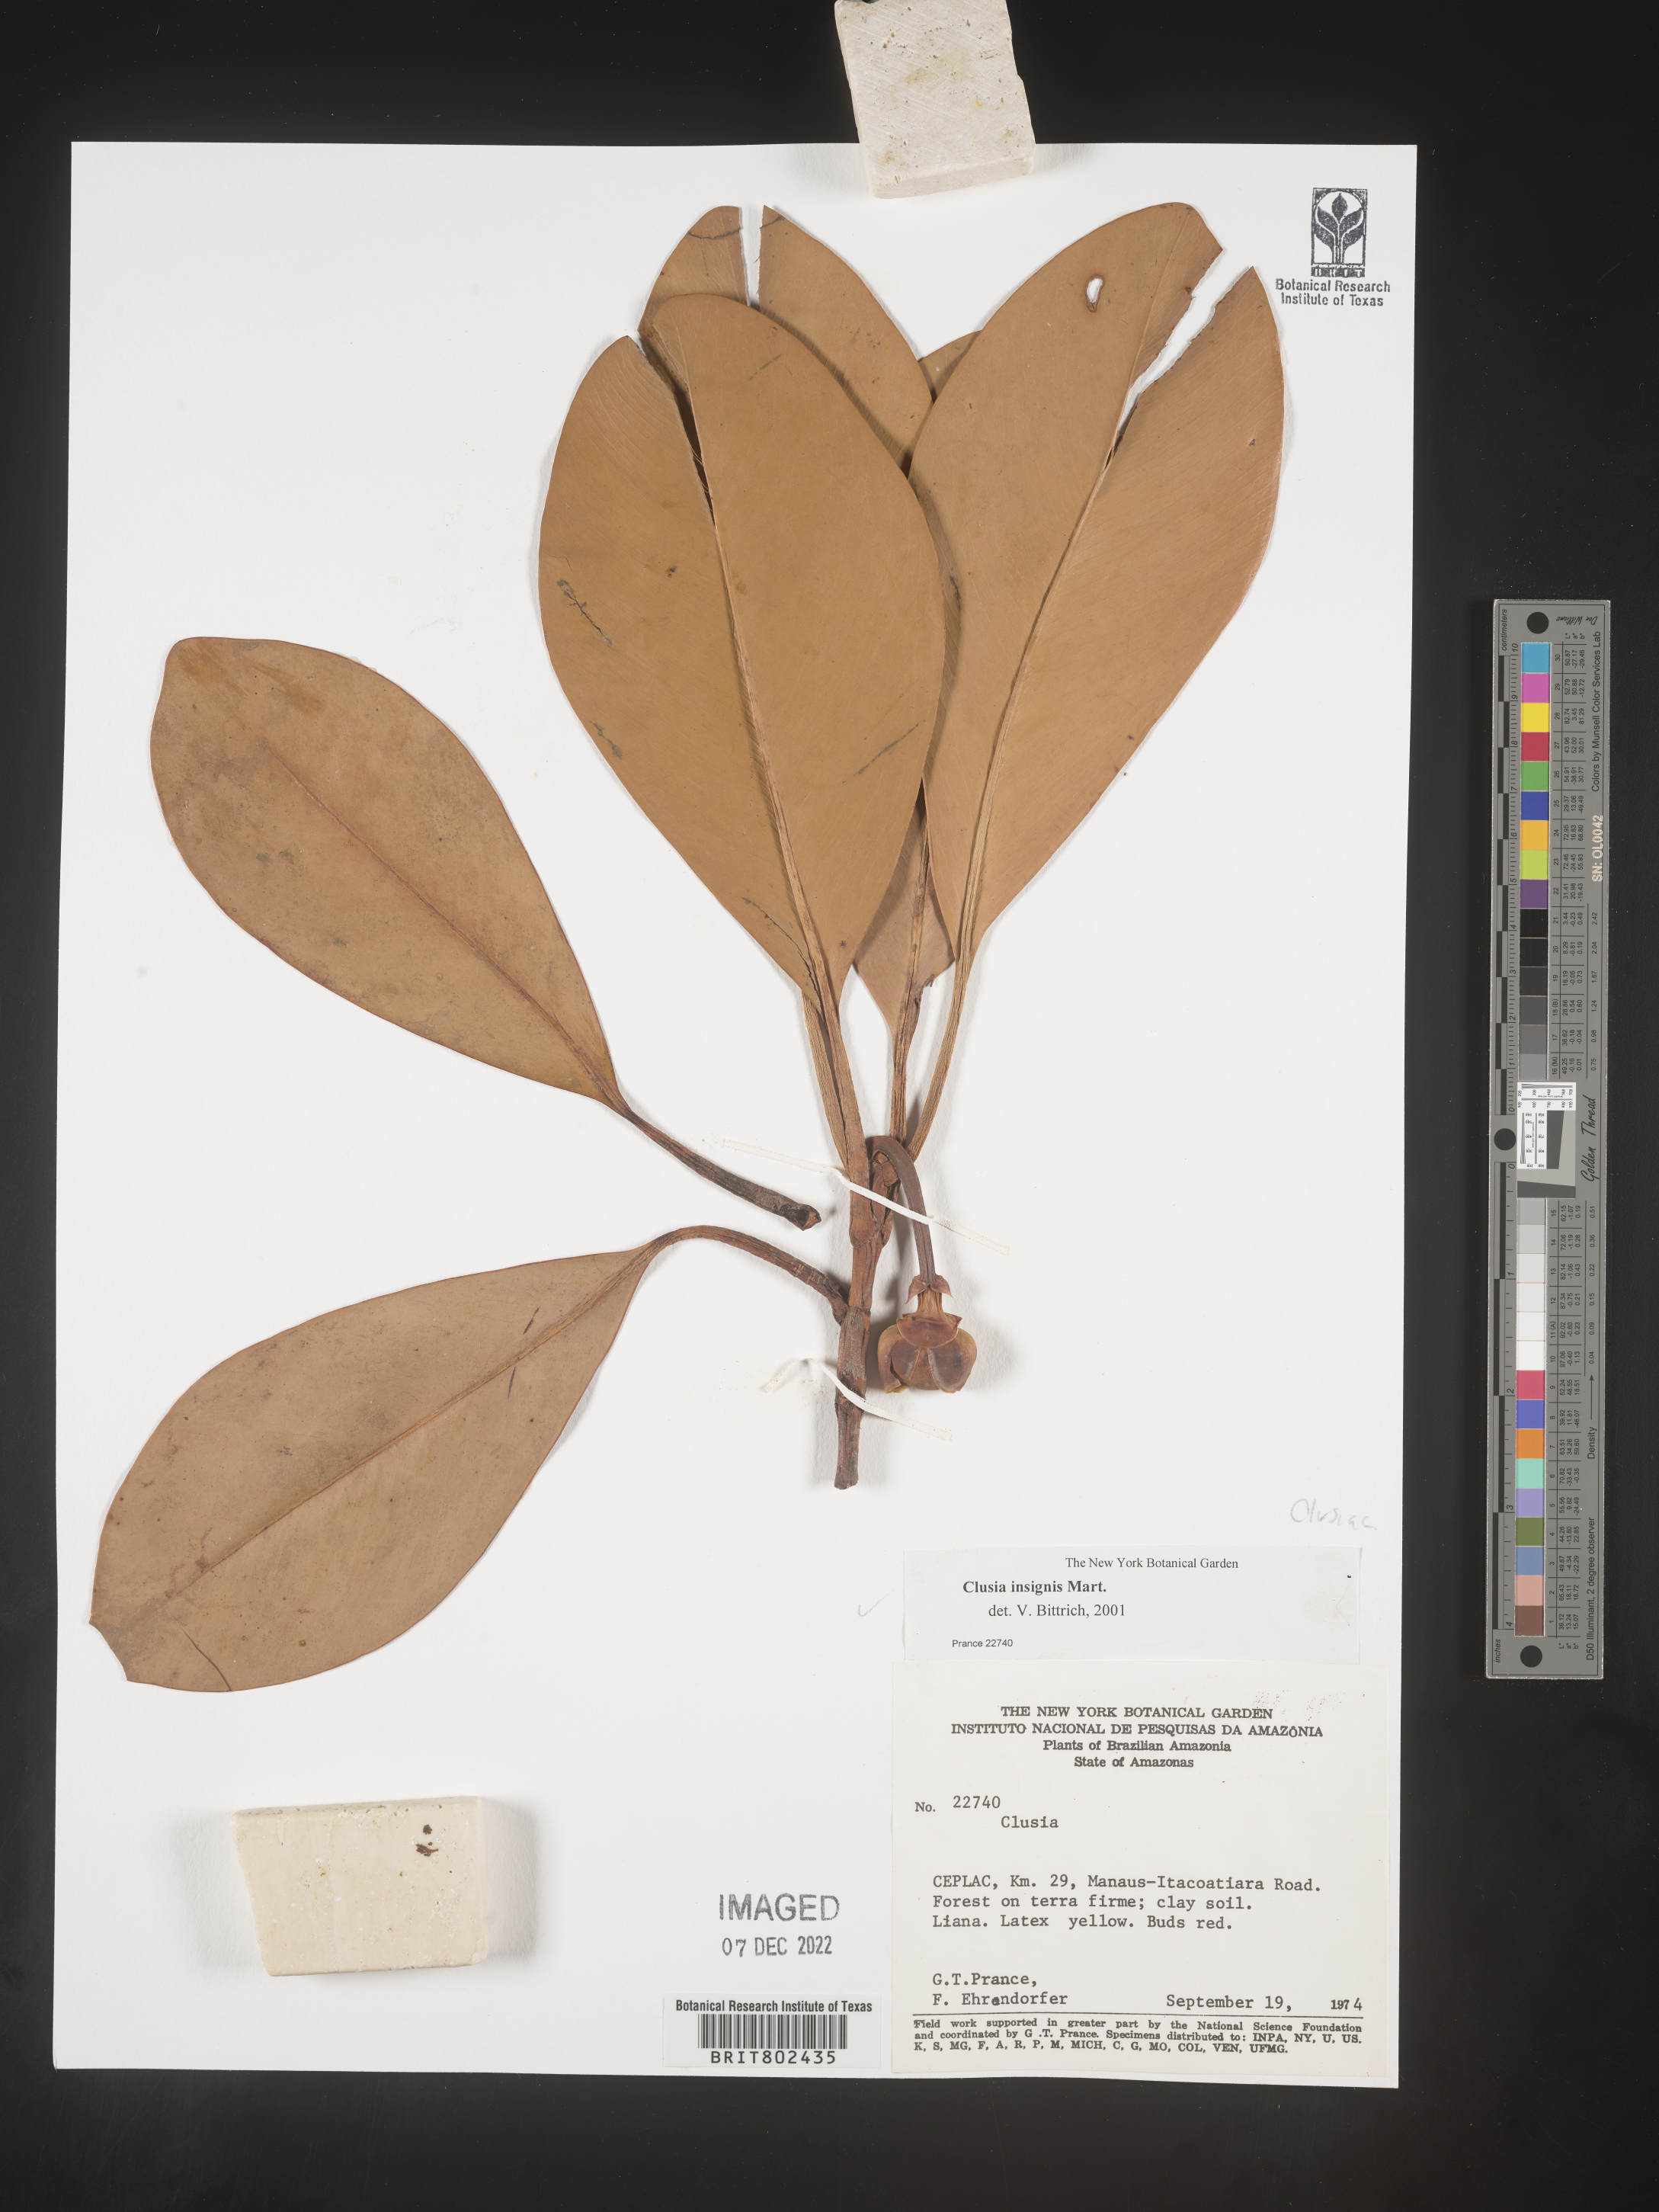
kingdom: Plantae
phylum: Tracheophyta
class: Magnoliopsida
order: Malpighiales
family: Clusiaceae
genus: Clusia
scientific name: Clusia insignis
